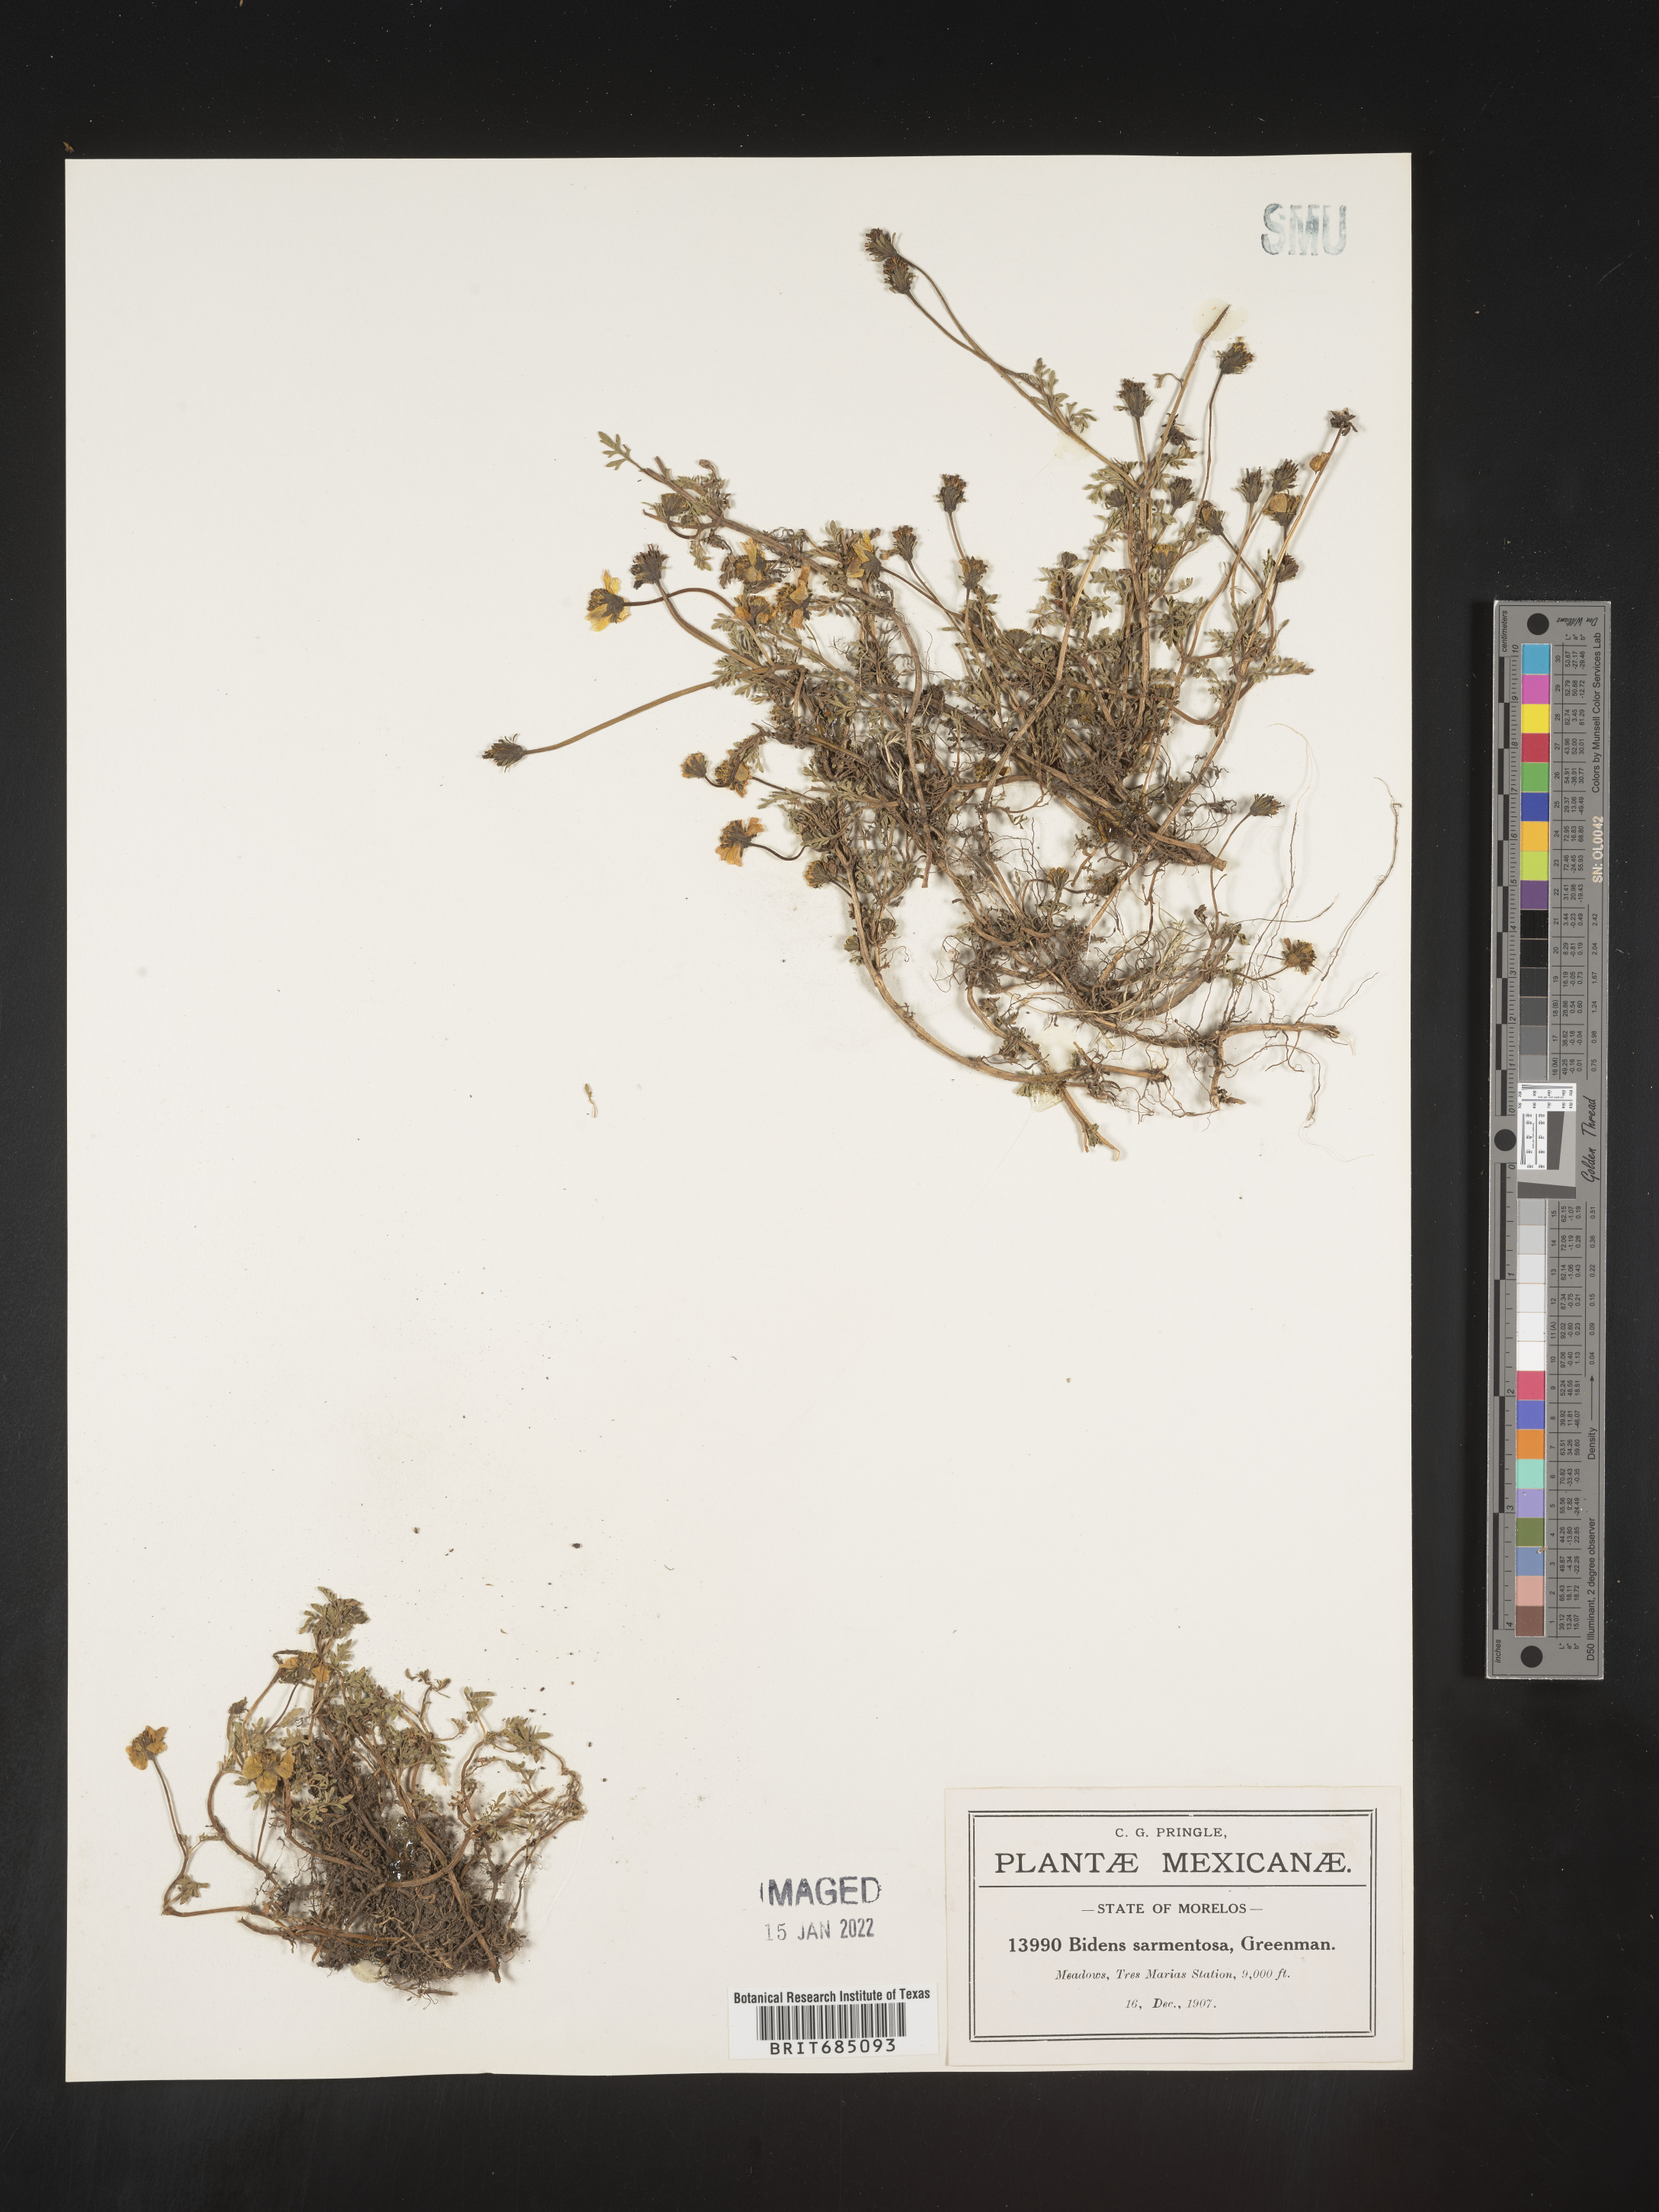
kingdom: Plantae
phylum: Tracheophyta
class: Magnoliopsida
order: Asterales
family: Asteraceae
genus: Bidens
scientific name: Bidens
